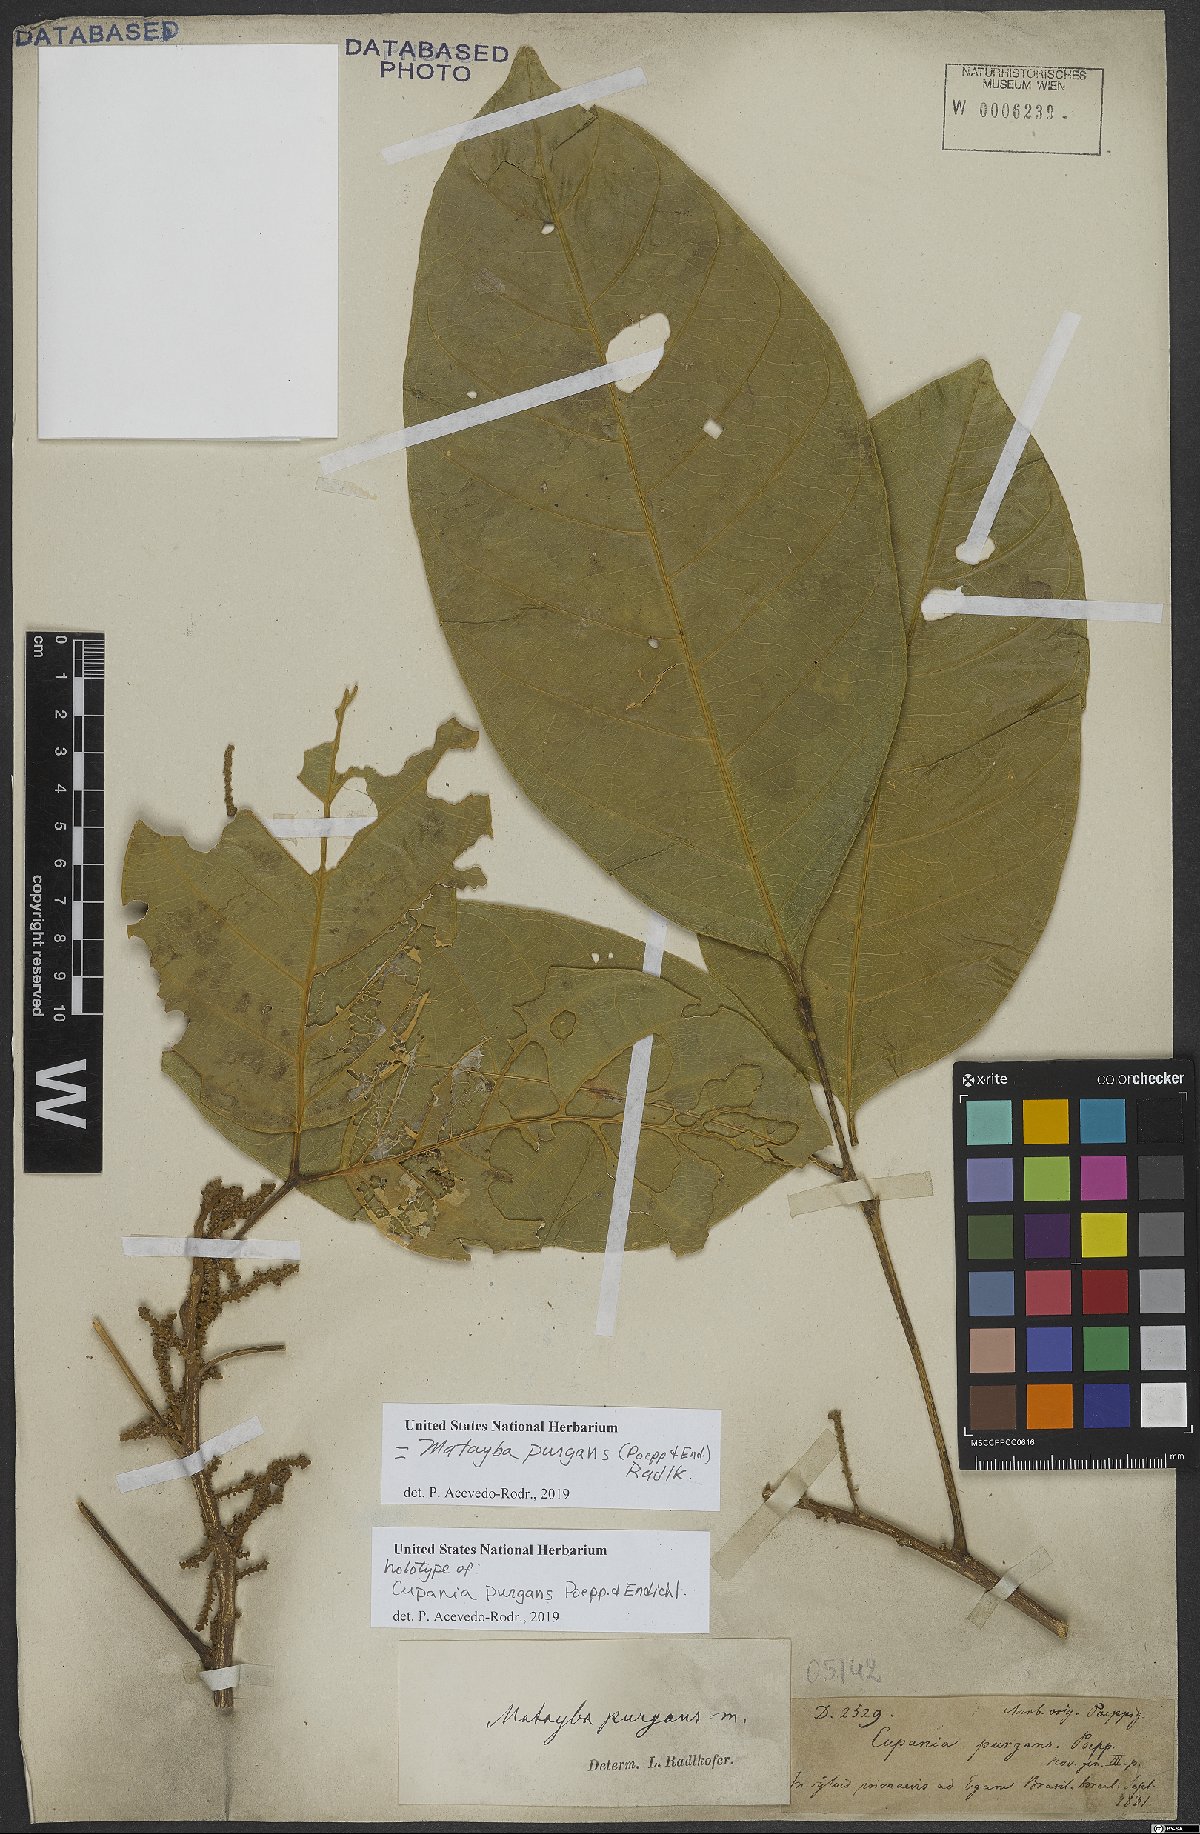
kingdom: Plantae
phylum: Tracheophyta
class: Magnoliopsida
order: Sapindales
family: Sapindaceae
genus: Matayba
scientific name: Matayba purgans
